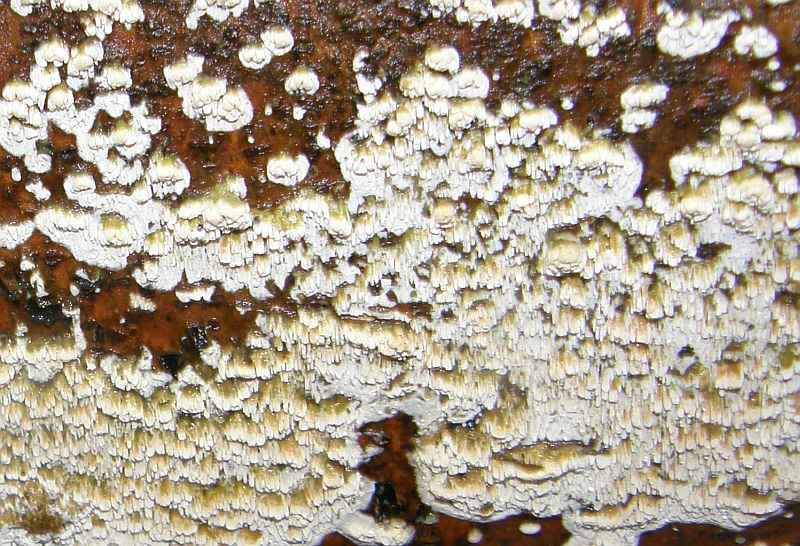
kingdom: Fungi
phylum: Basidiomycota
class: Agaricomycetes
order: Hymenochaetales
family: Schizoporaceae
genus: Schizopora
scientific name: Schizopora paradoxa
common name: hvid tandsvamp
